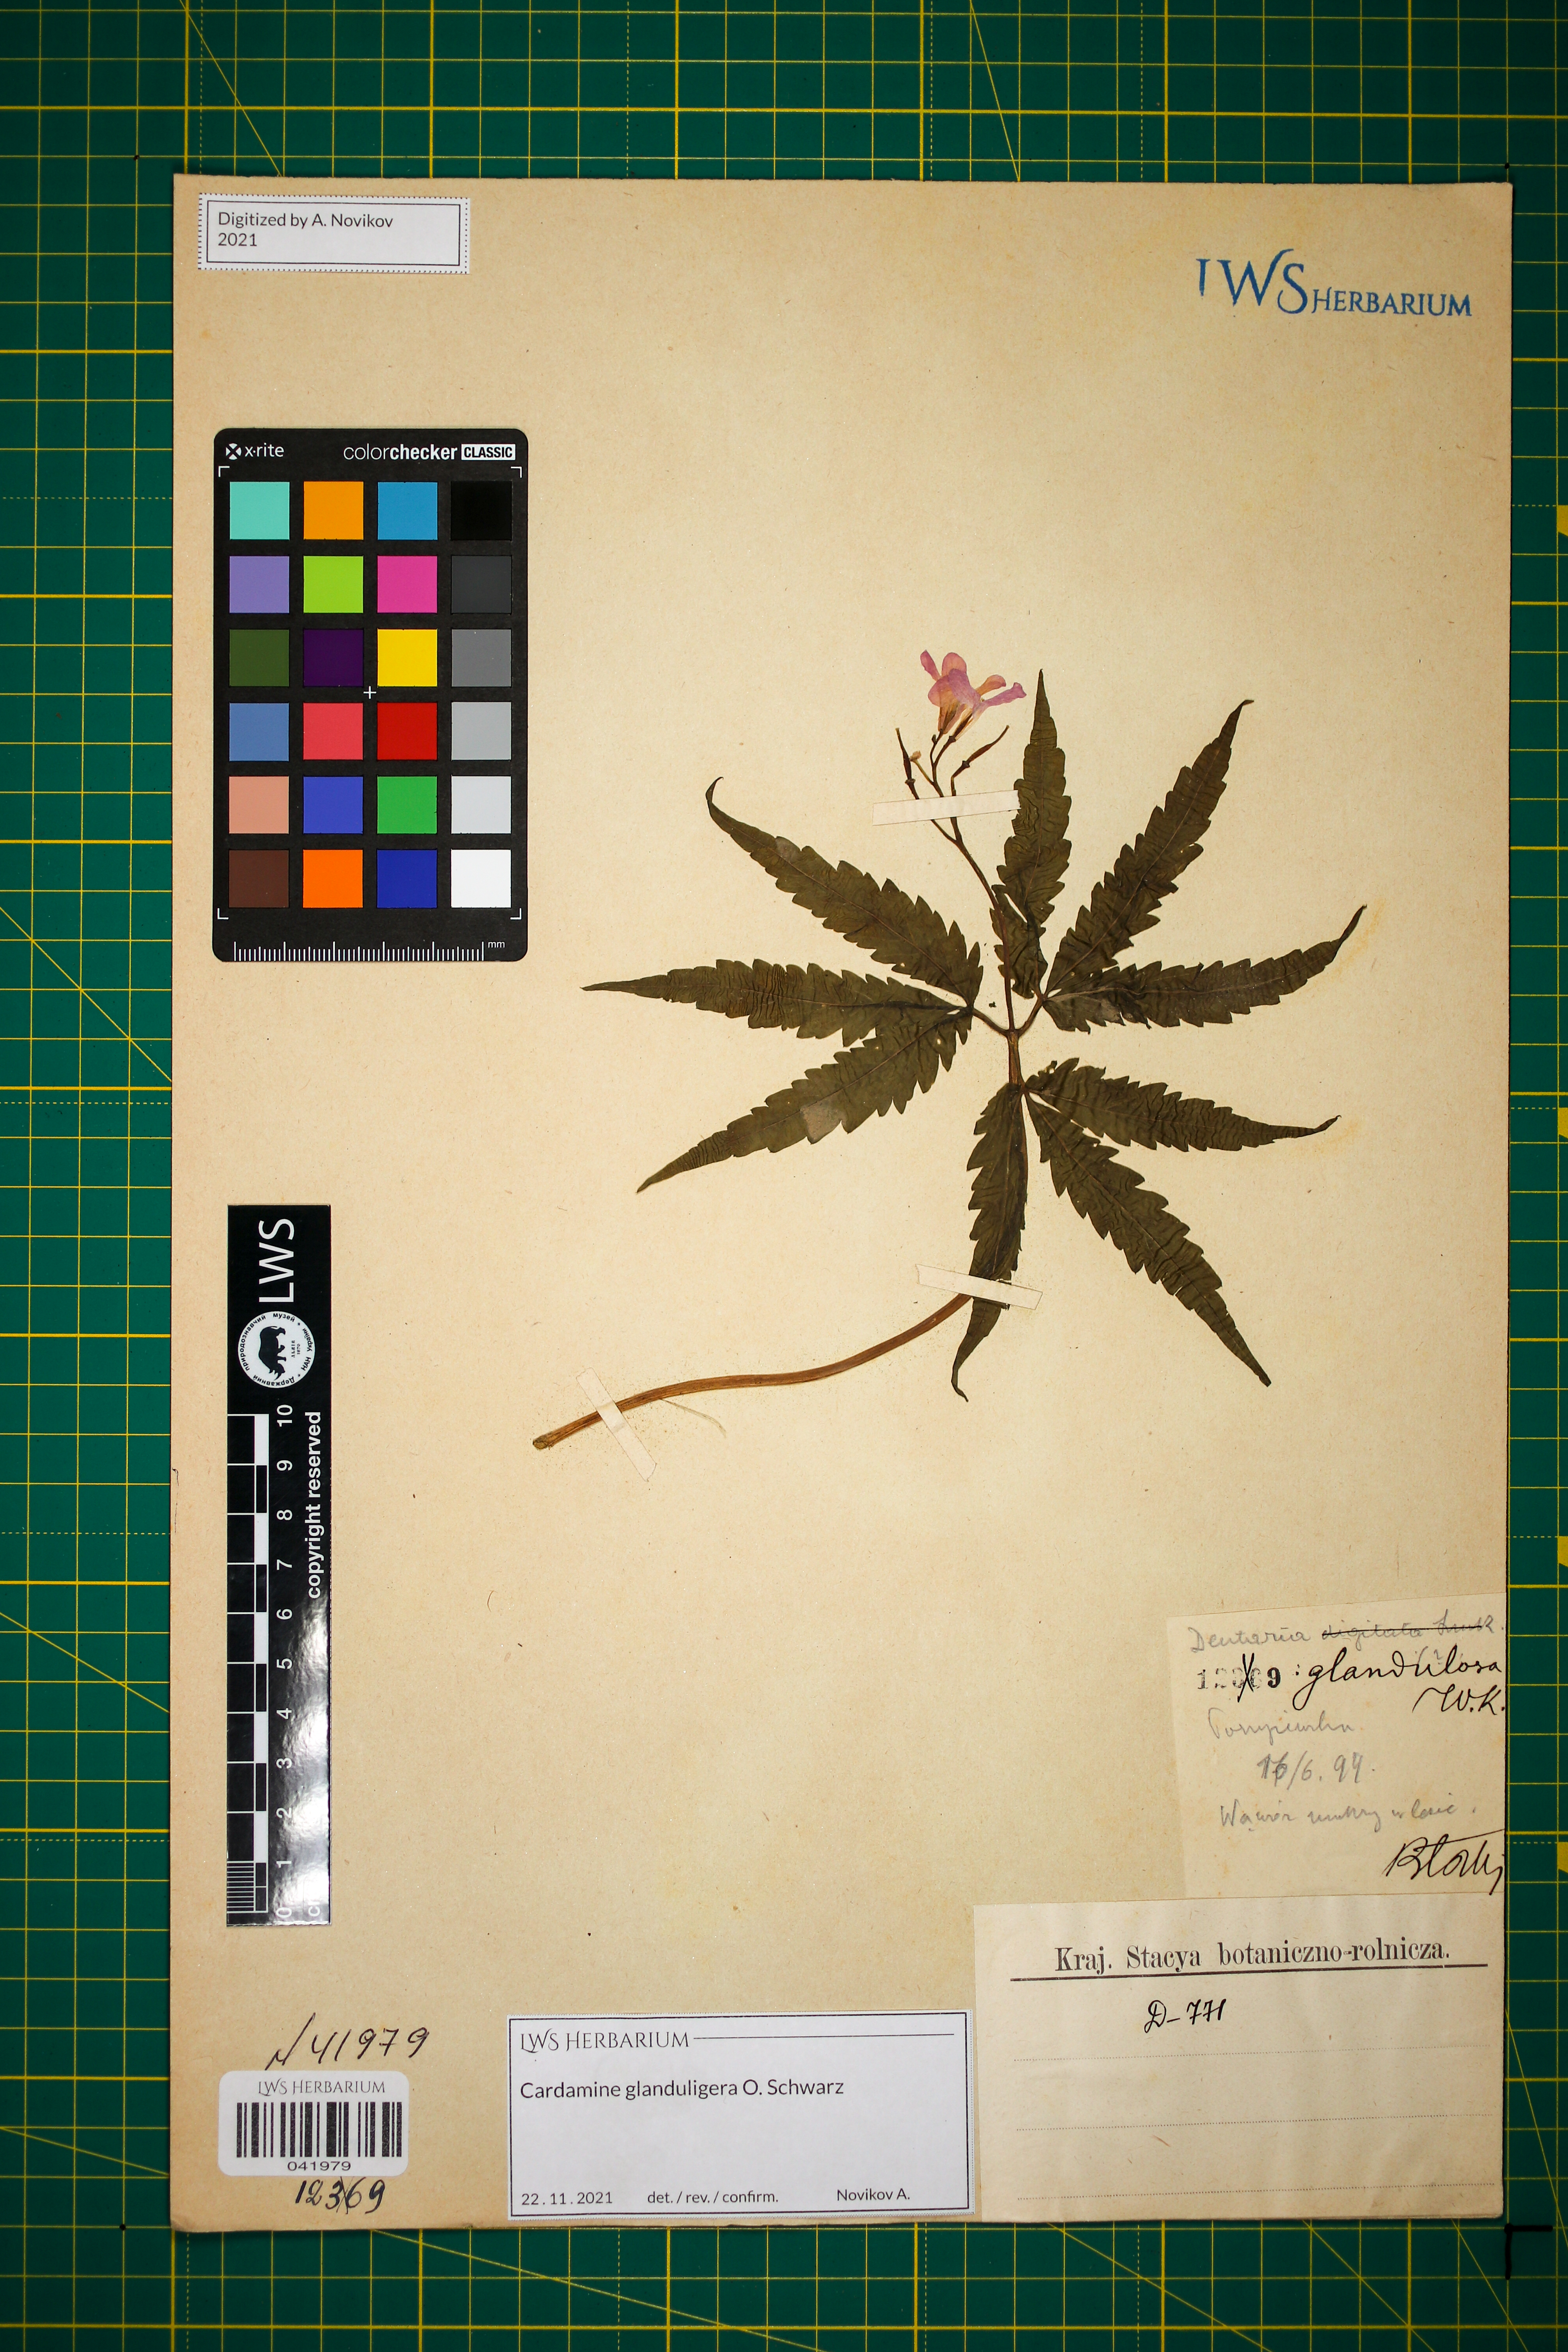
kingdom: Plantae
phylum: Tracheophyta
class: Magnoliopsida
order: Brassicales
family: Brassicaceae
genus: Cardamine
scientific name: Cardamine glanduligera
